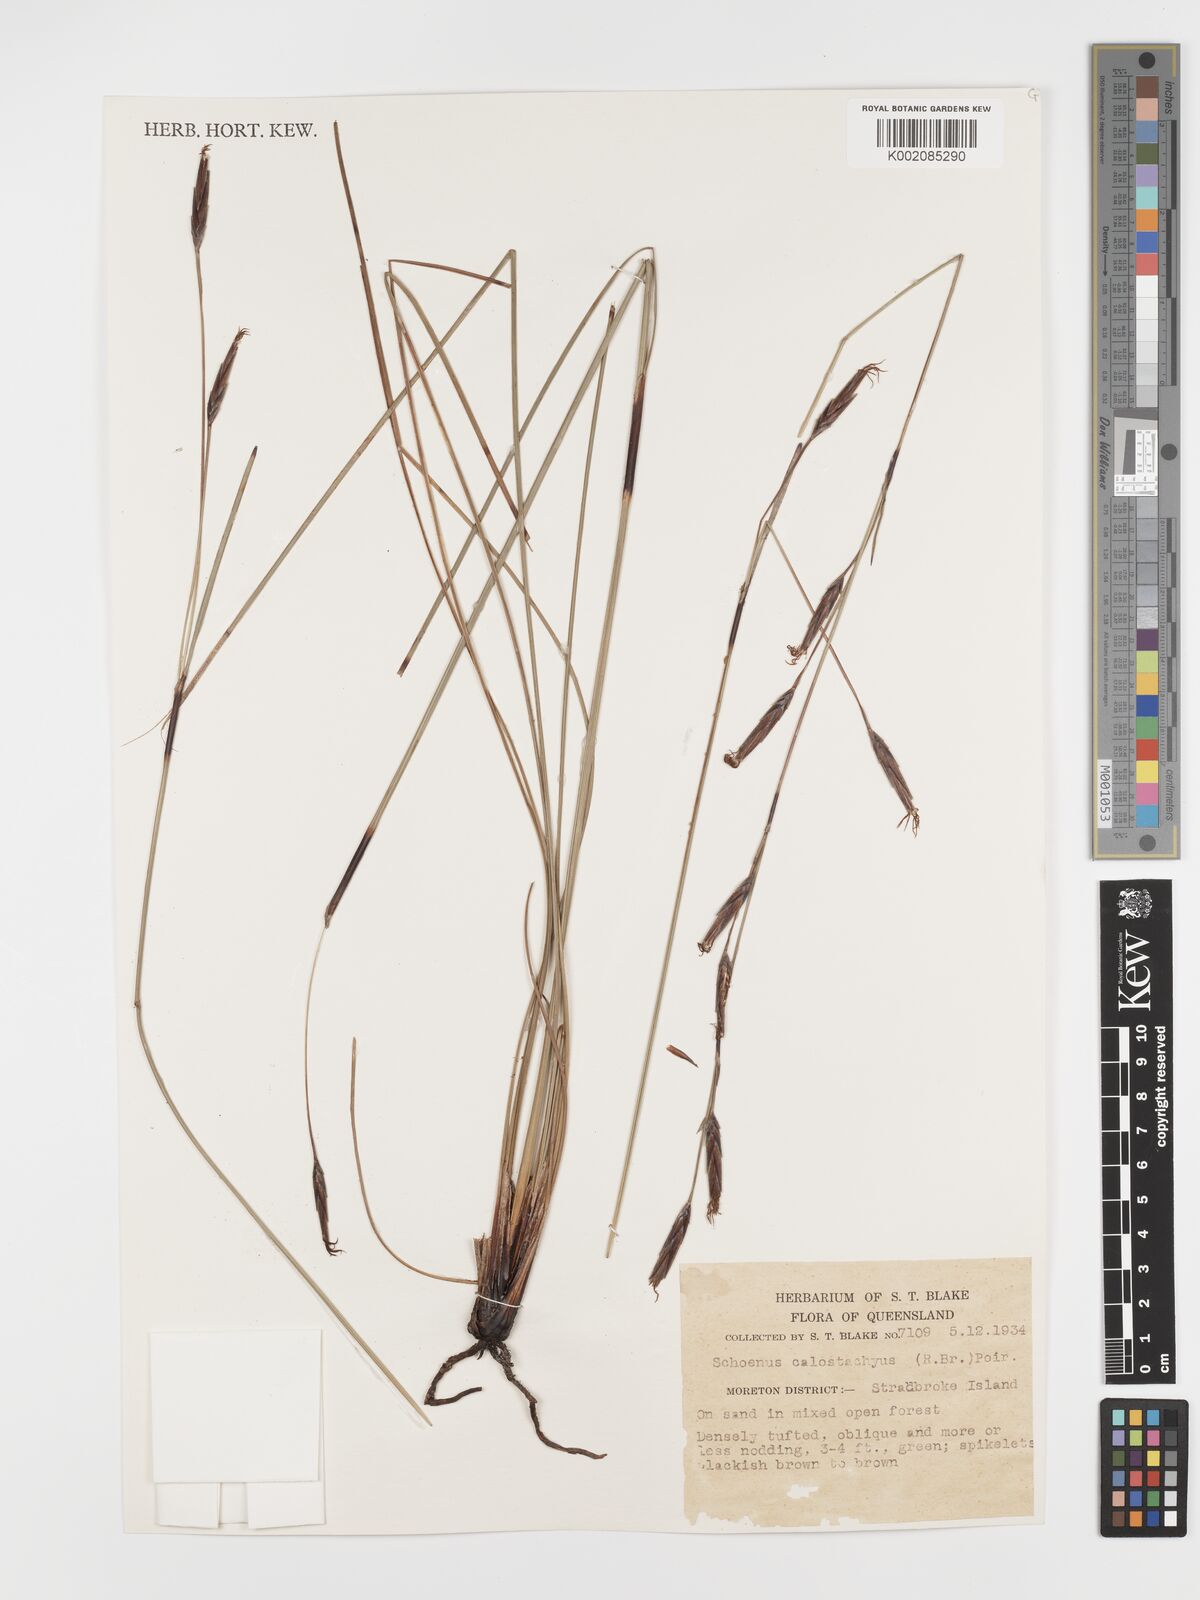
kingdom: Plantae
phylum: Tracheophyta
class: Liliopsida
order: Poales
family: Cyperaceae
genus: Schoenus
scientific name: Schoenus calostachyus
